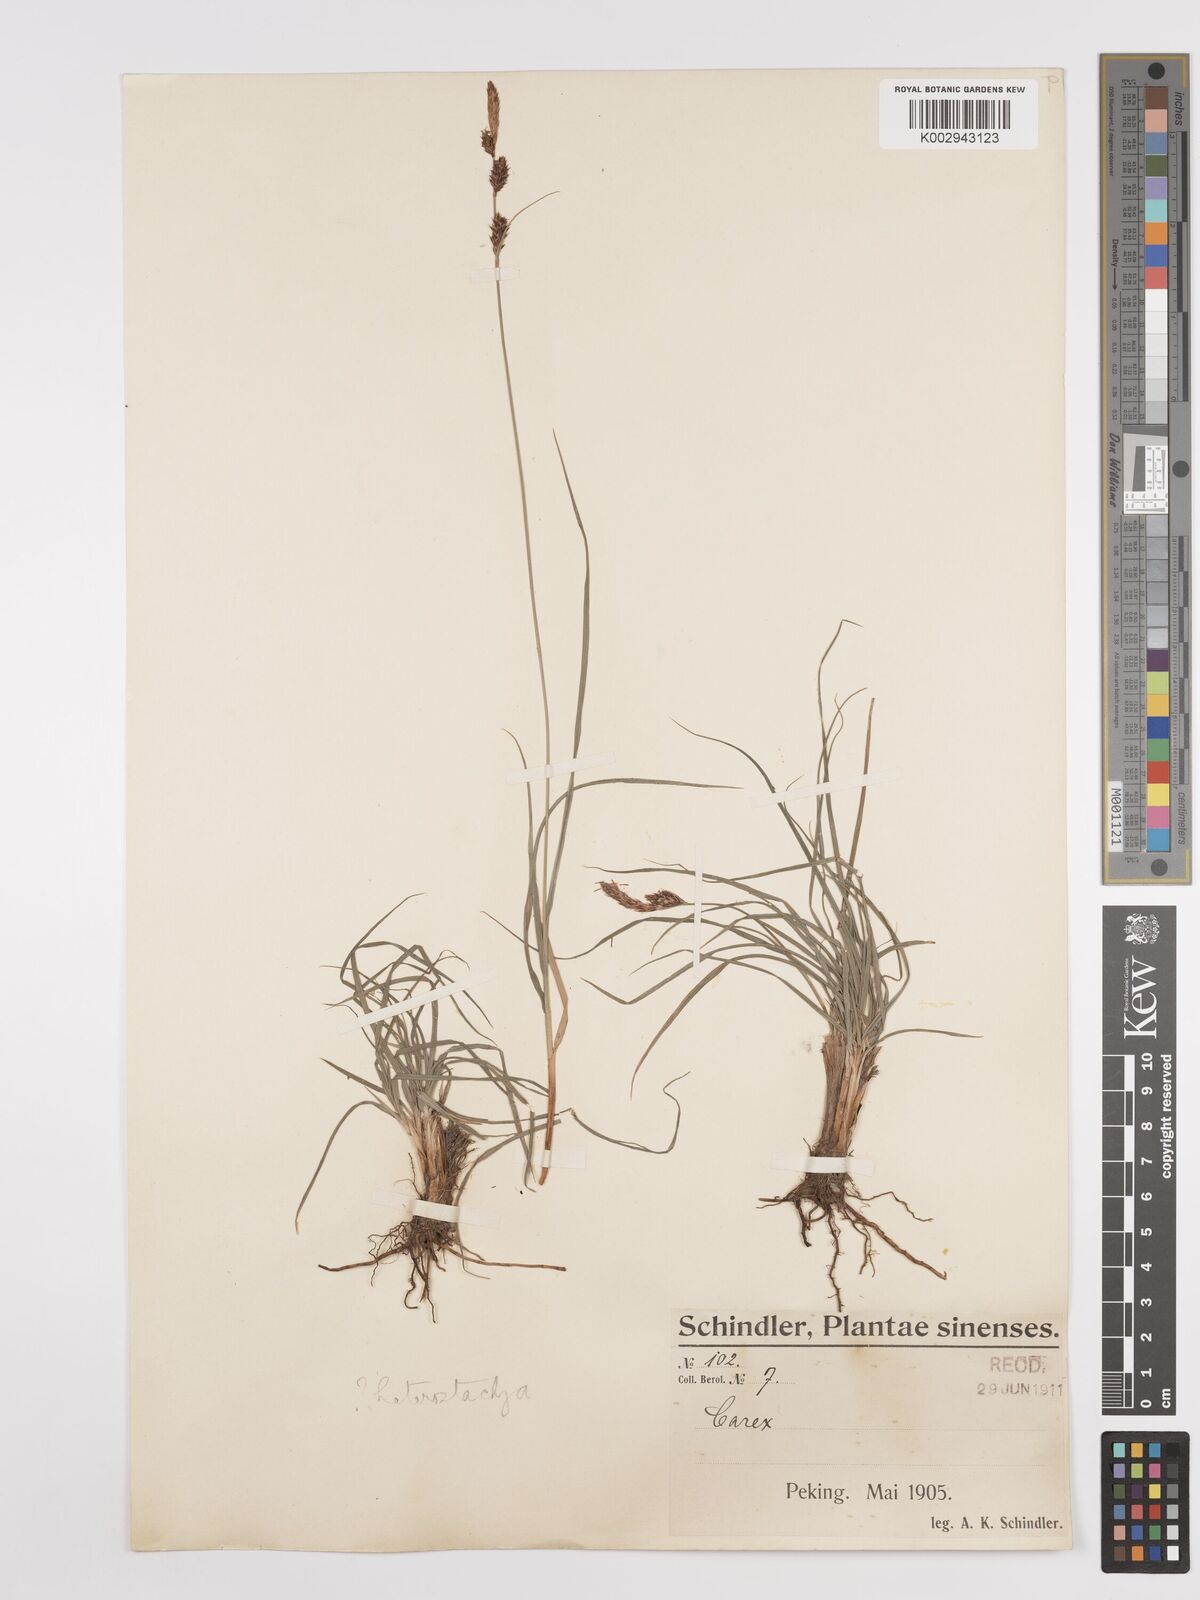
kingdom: Plantae
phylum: Tracheophyta
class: Liliopsida
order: Poales
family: Cyperaceae
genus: Carex
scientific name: Carex
